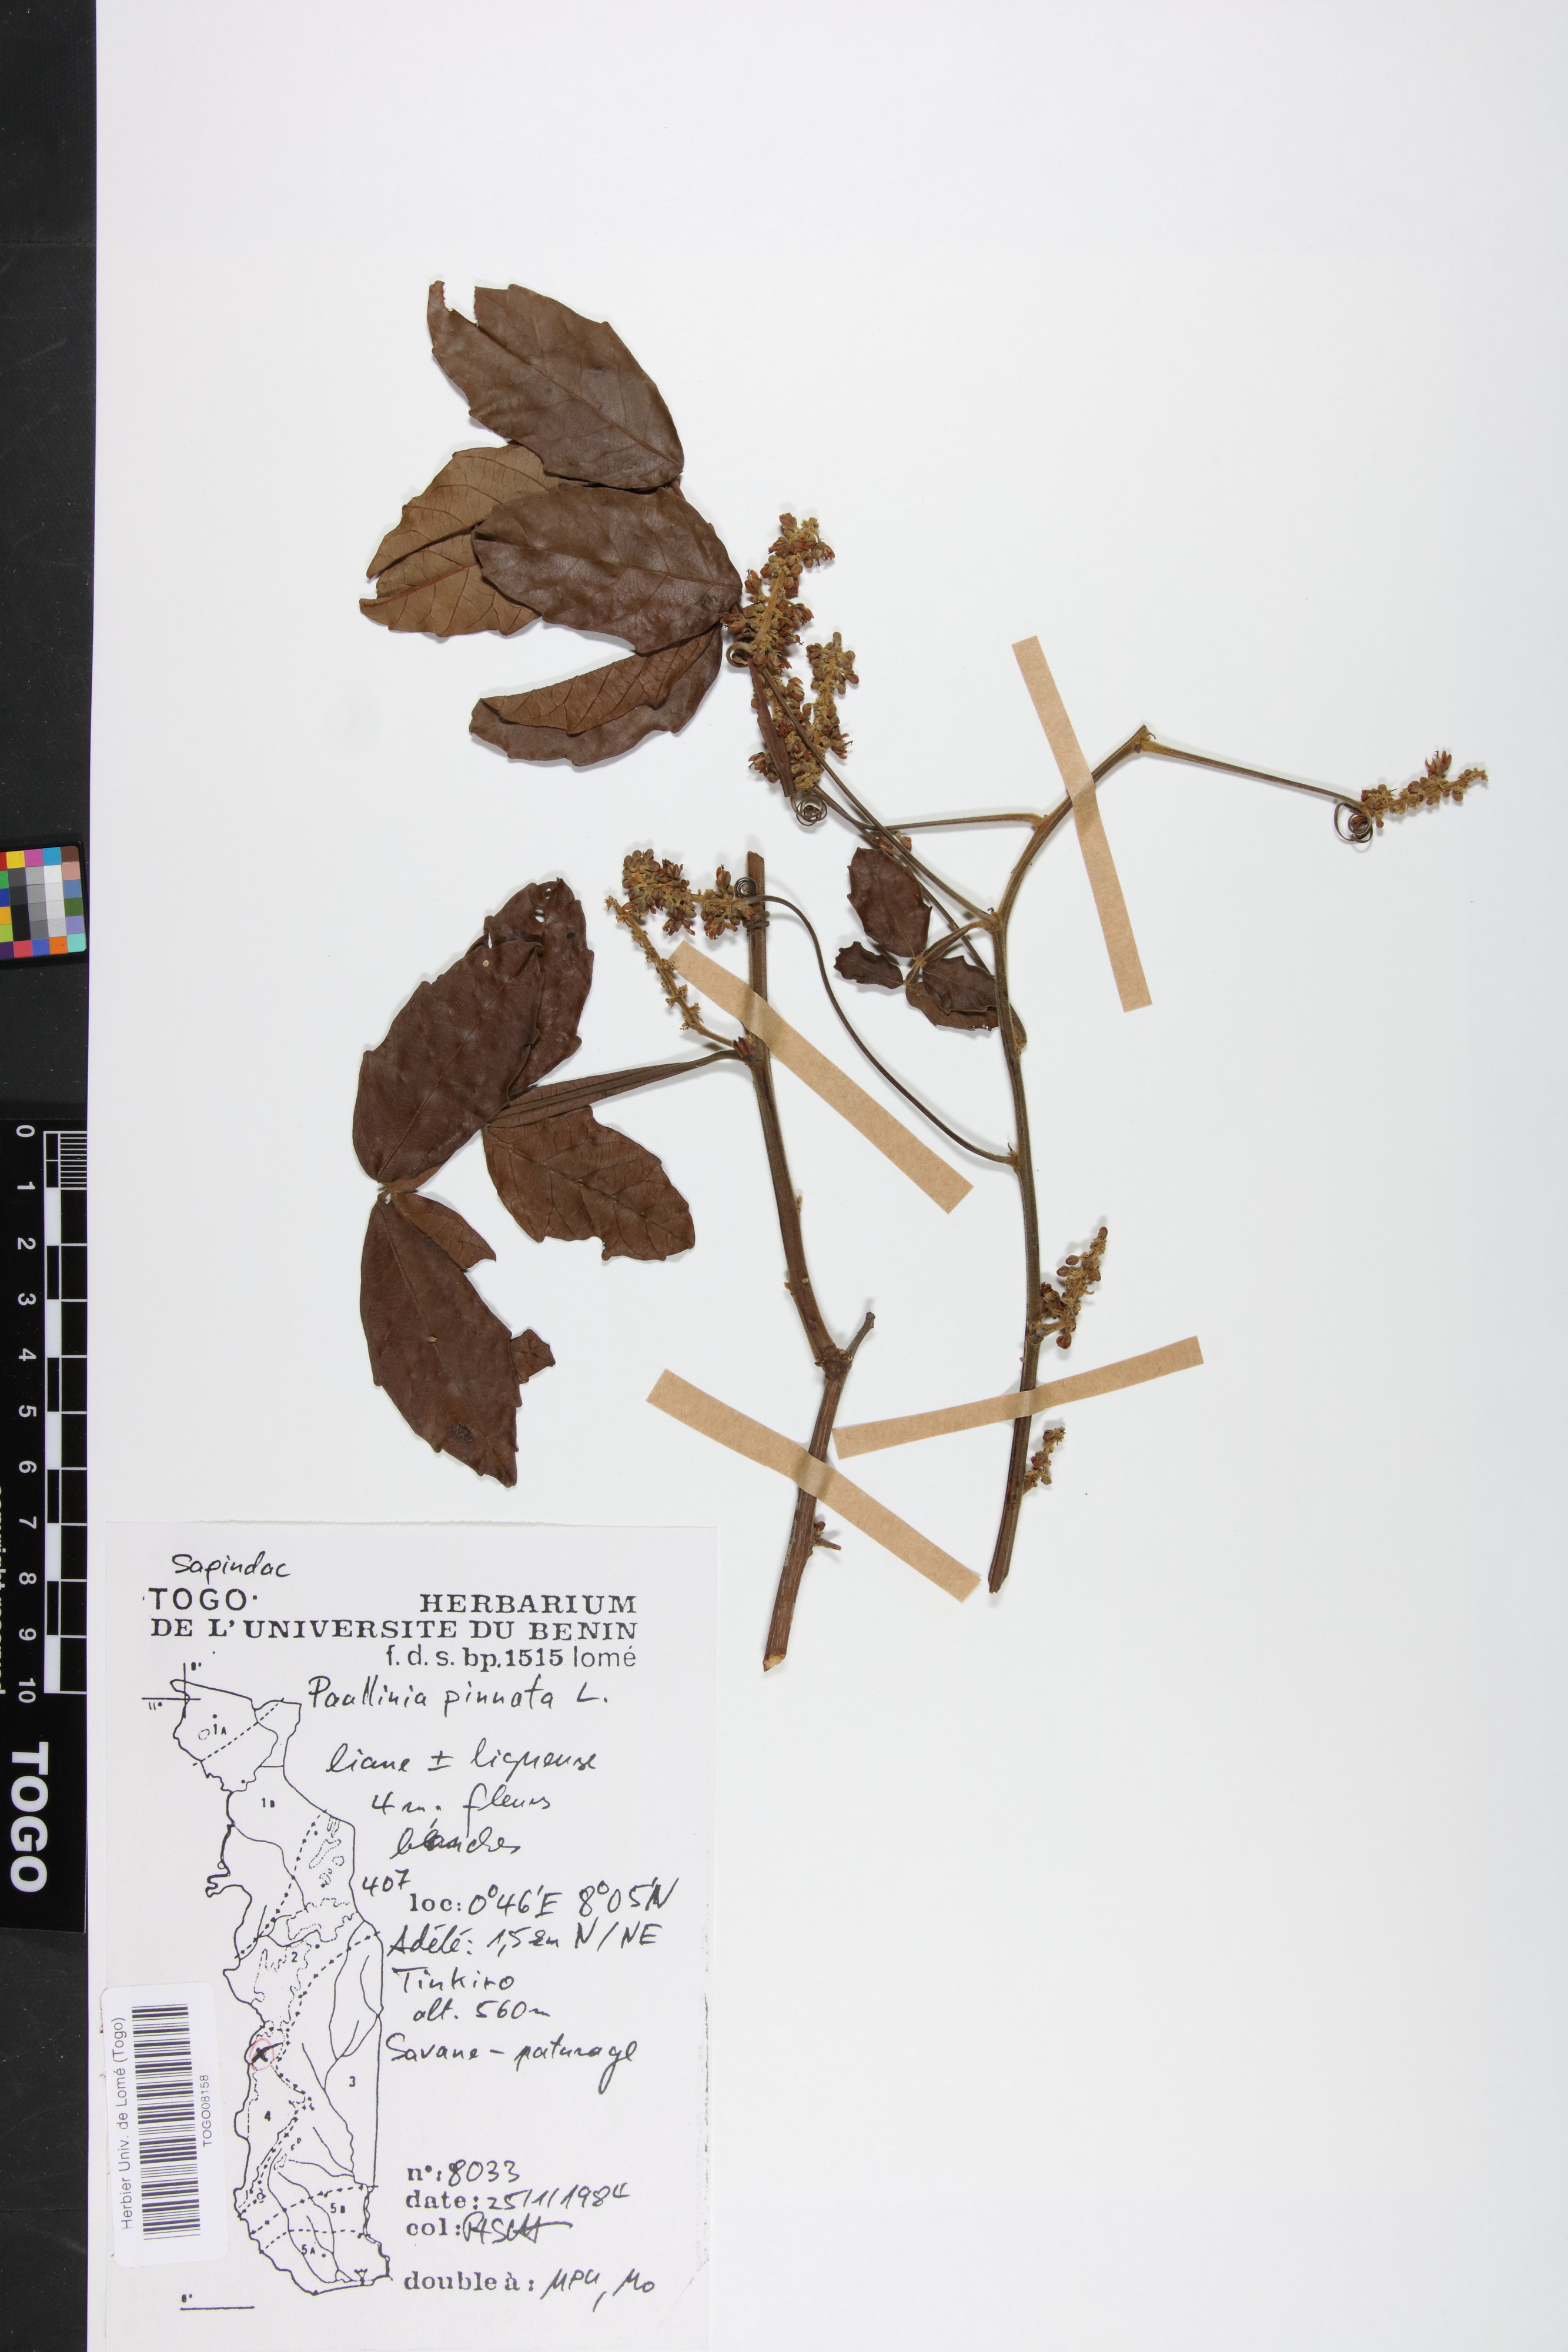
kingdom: Plantae
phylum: Tracheophyta
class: Magnoliopsida
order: Sapindales
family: Sapindaceae
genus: Paullinia
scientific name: Paullinia pinnata
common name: Barbasco
